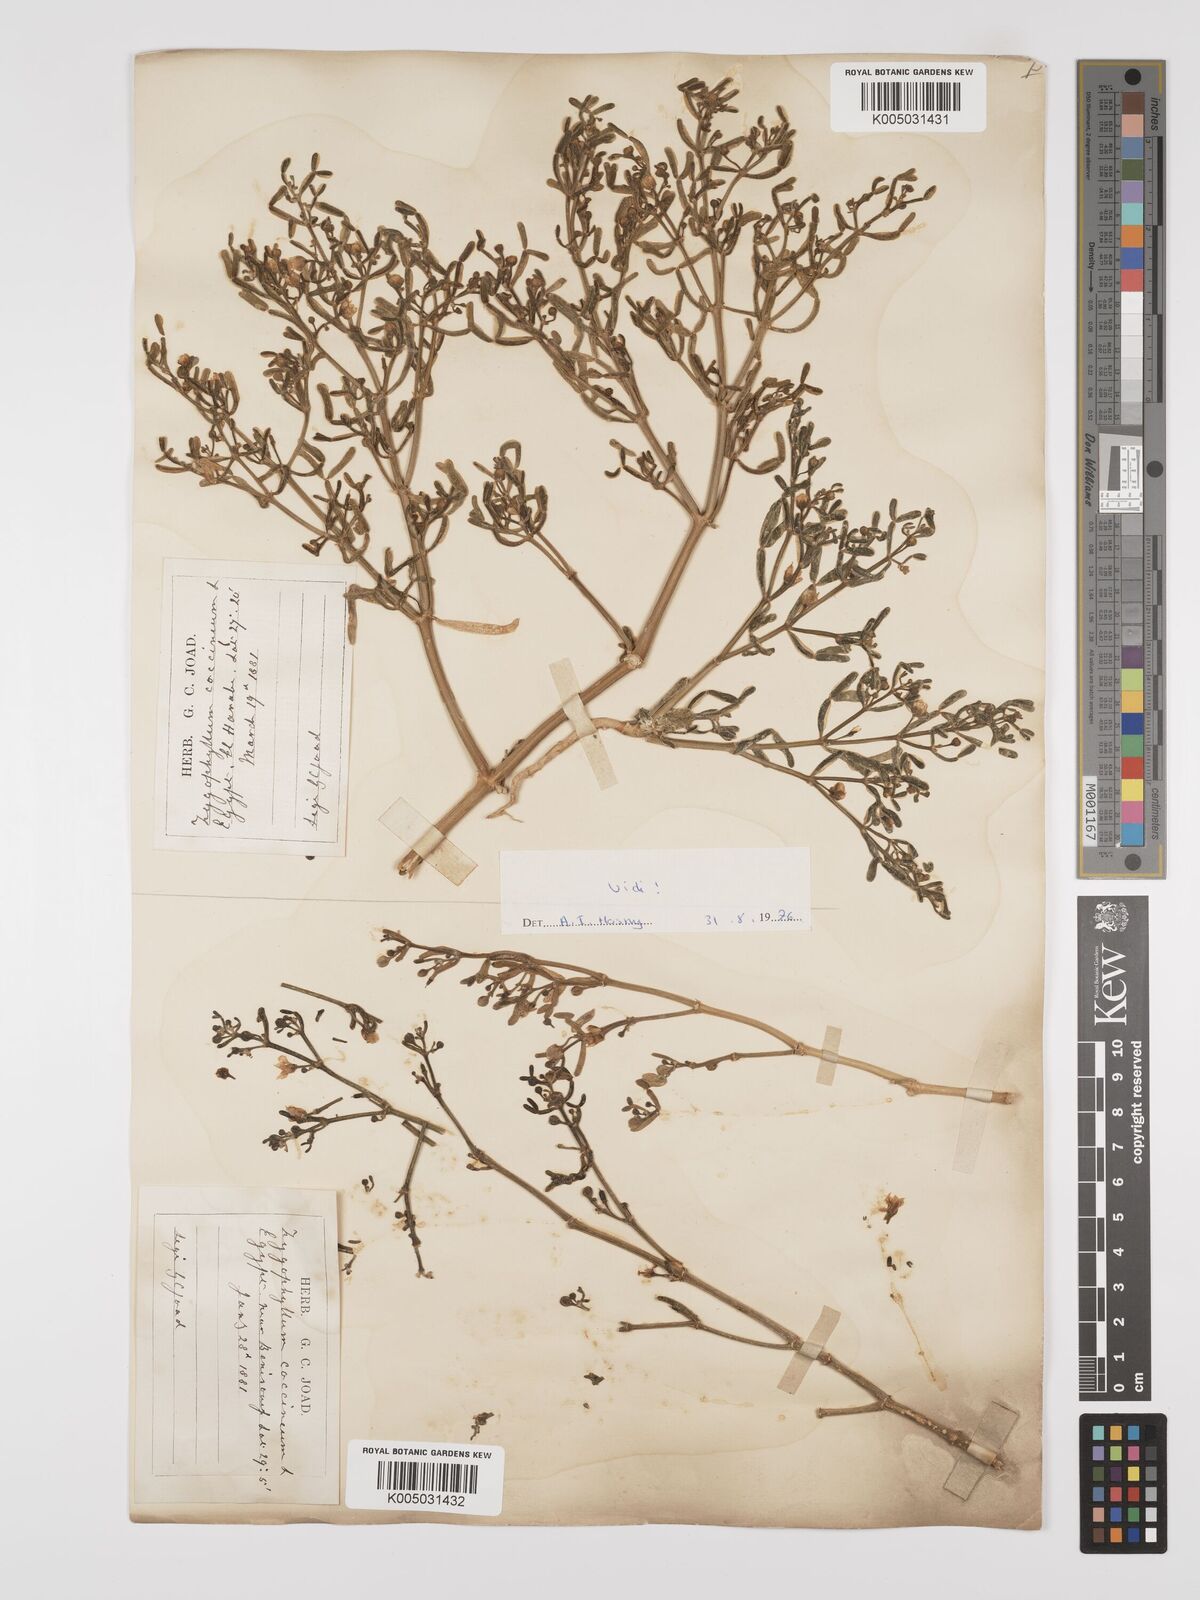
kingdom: Plantae
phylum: Tracheophyta
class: Magnoliopsida
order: Zygophyllales
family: Zygophyllaceae
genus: Zygophyllum
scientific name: Zygophyllum
